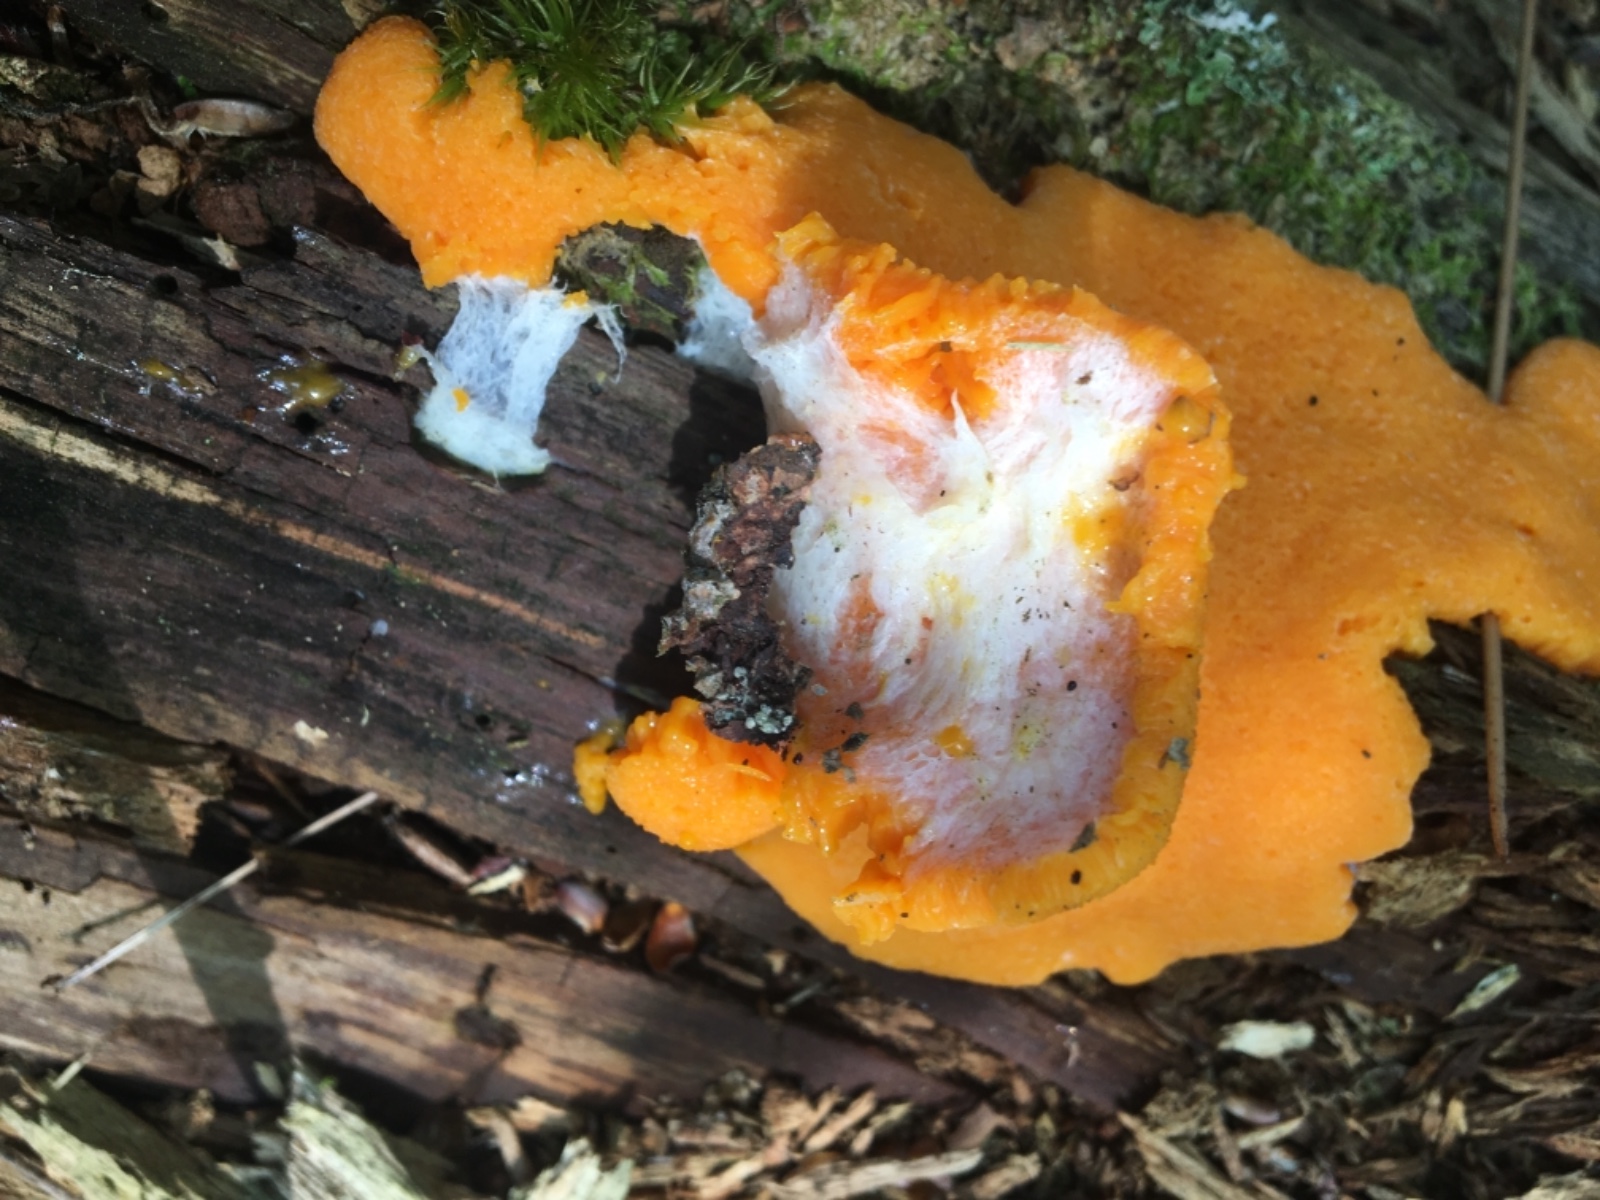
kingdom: Protozoa
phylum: Mycetozoa
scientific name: Mycetozoa
